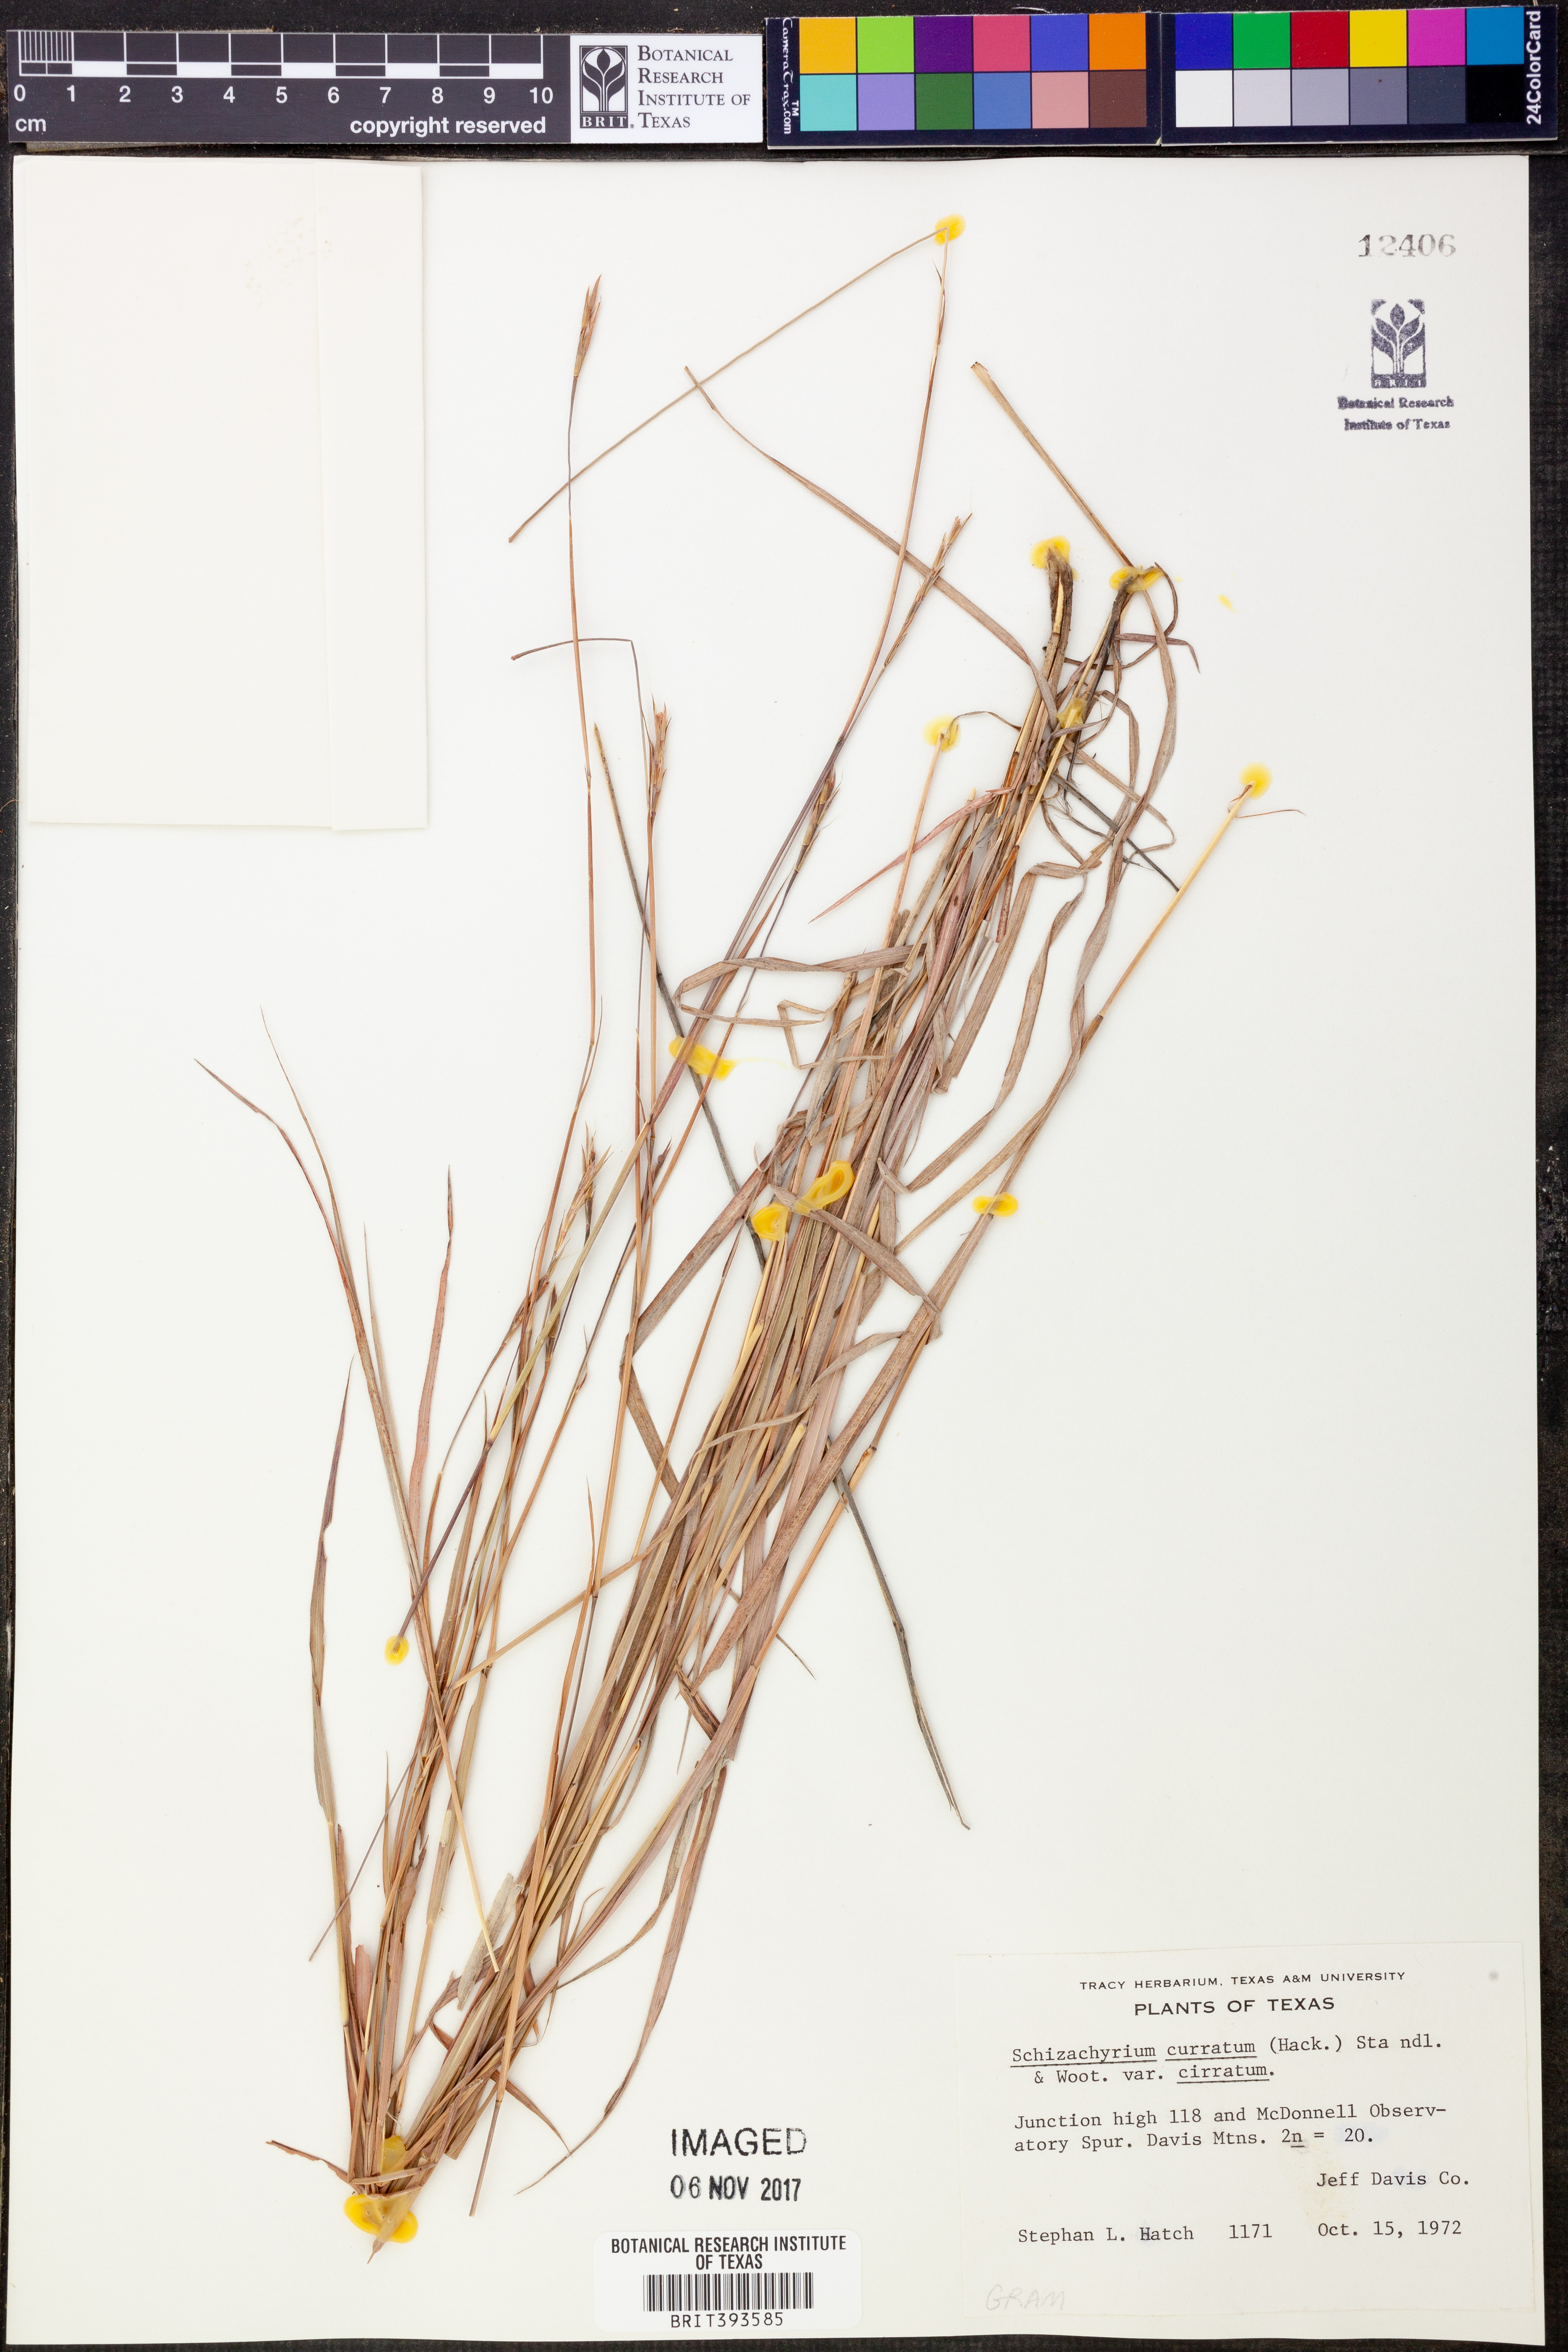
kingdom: Plantae
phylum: Tracheophyta
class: Liliopsida
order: Poales
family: Poaceae
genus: Andropogon
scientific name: Andropogon cirratus
